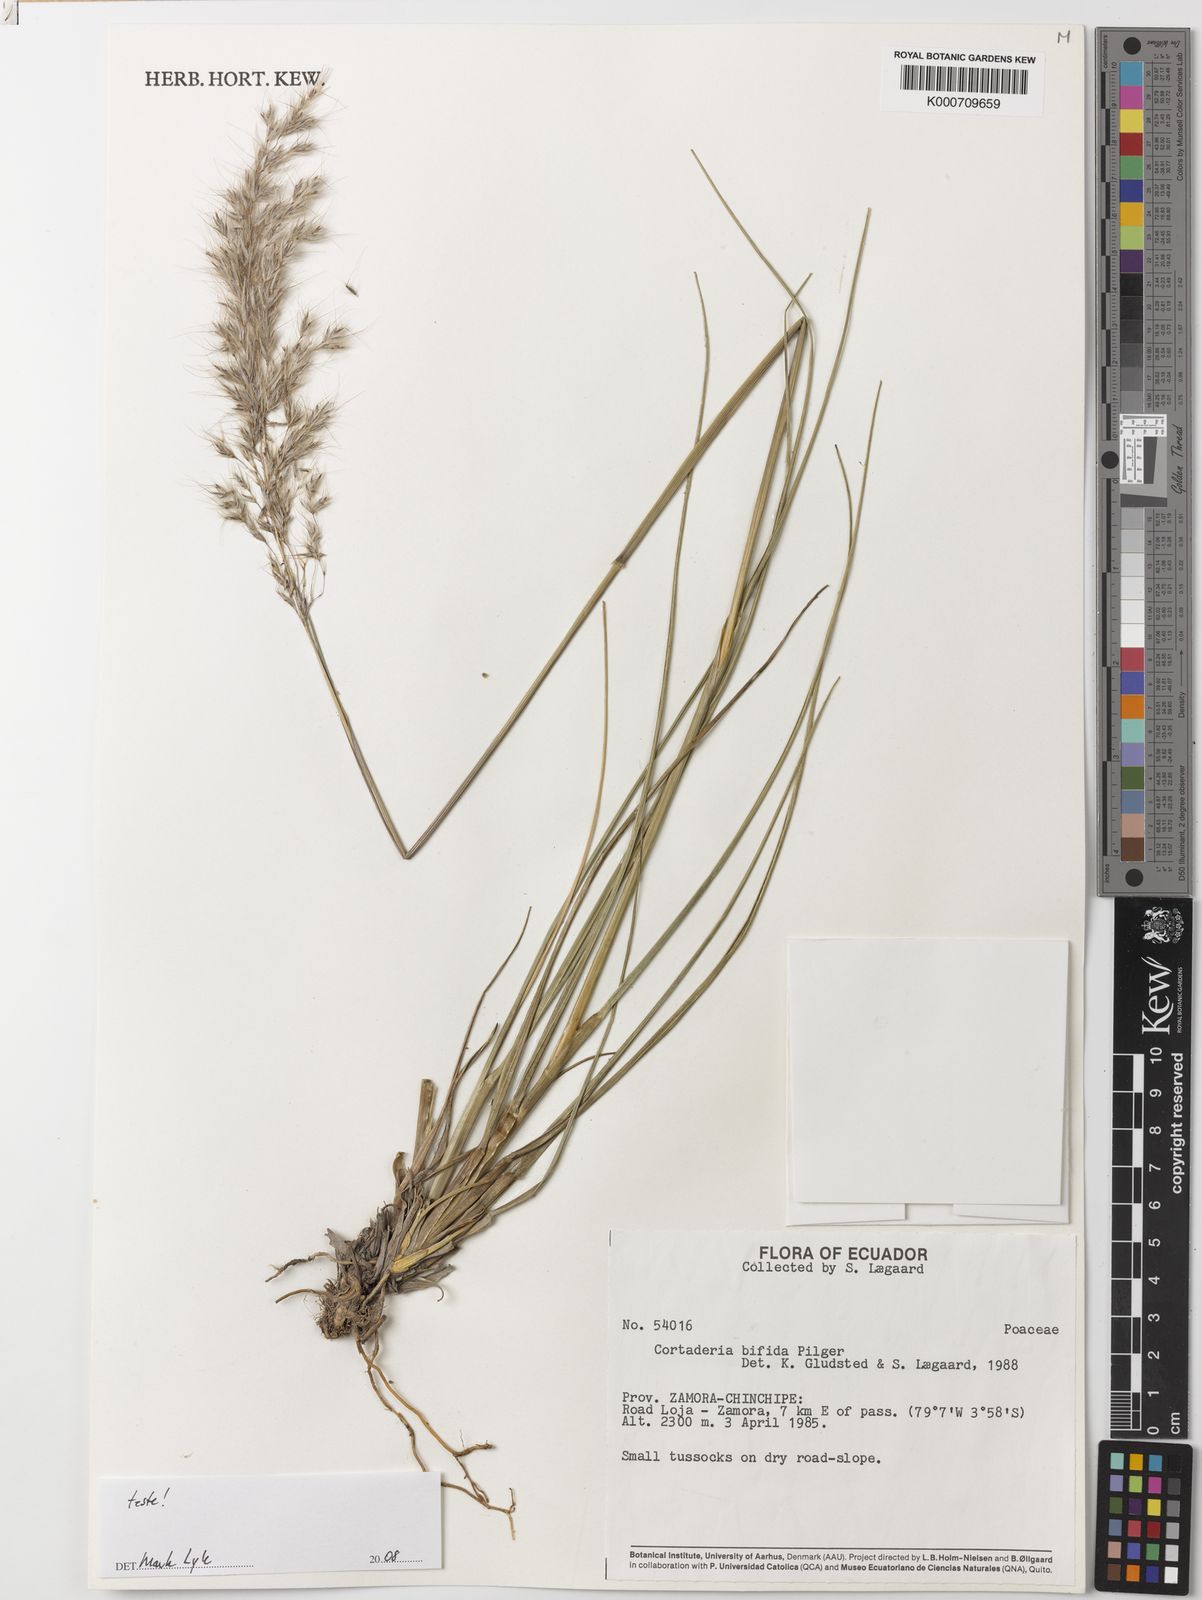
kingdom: Plantae
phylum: Tracheophyta
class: Liliopsida
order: Poales
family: Poaceae
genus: Cortaderia
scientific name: Cortaderia
